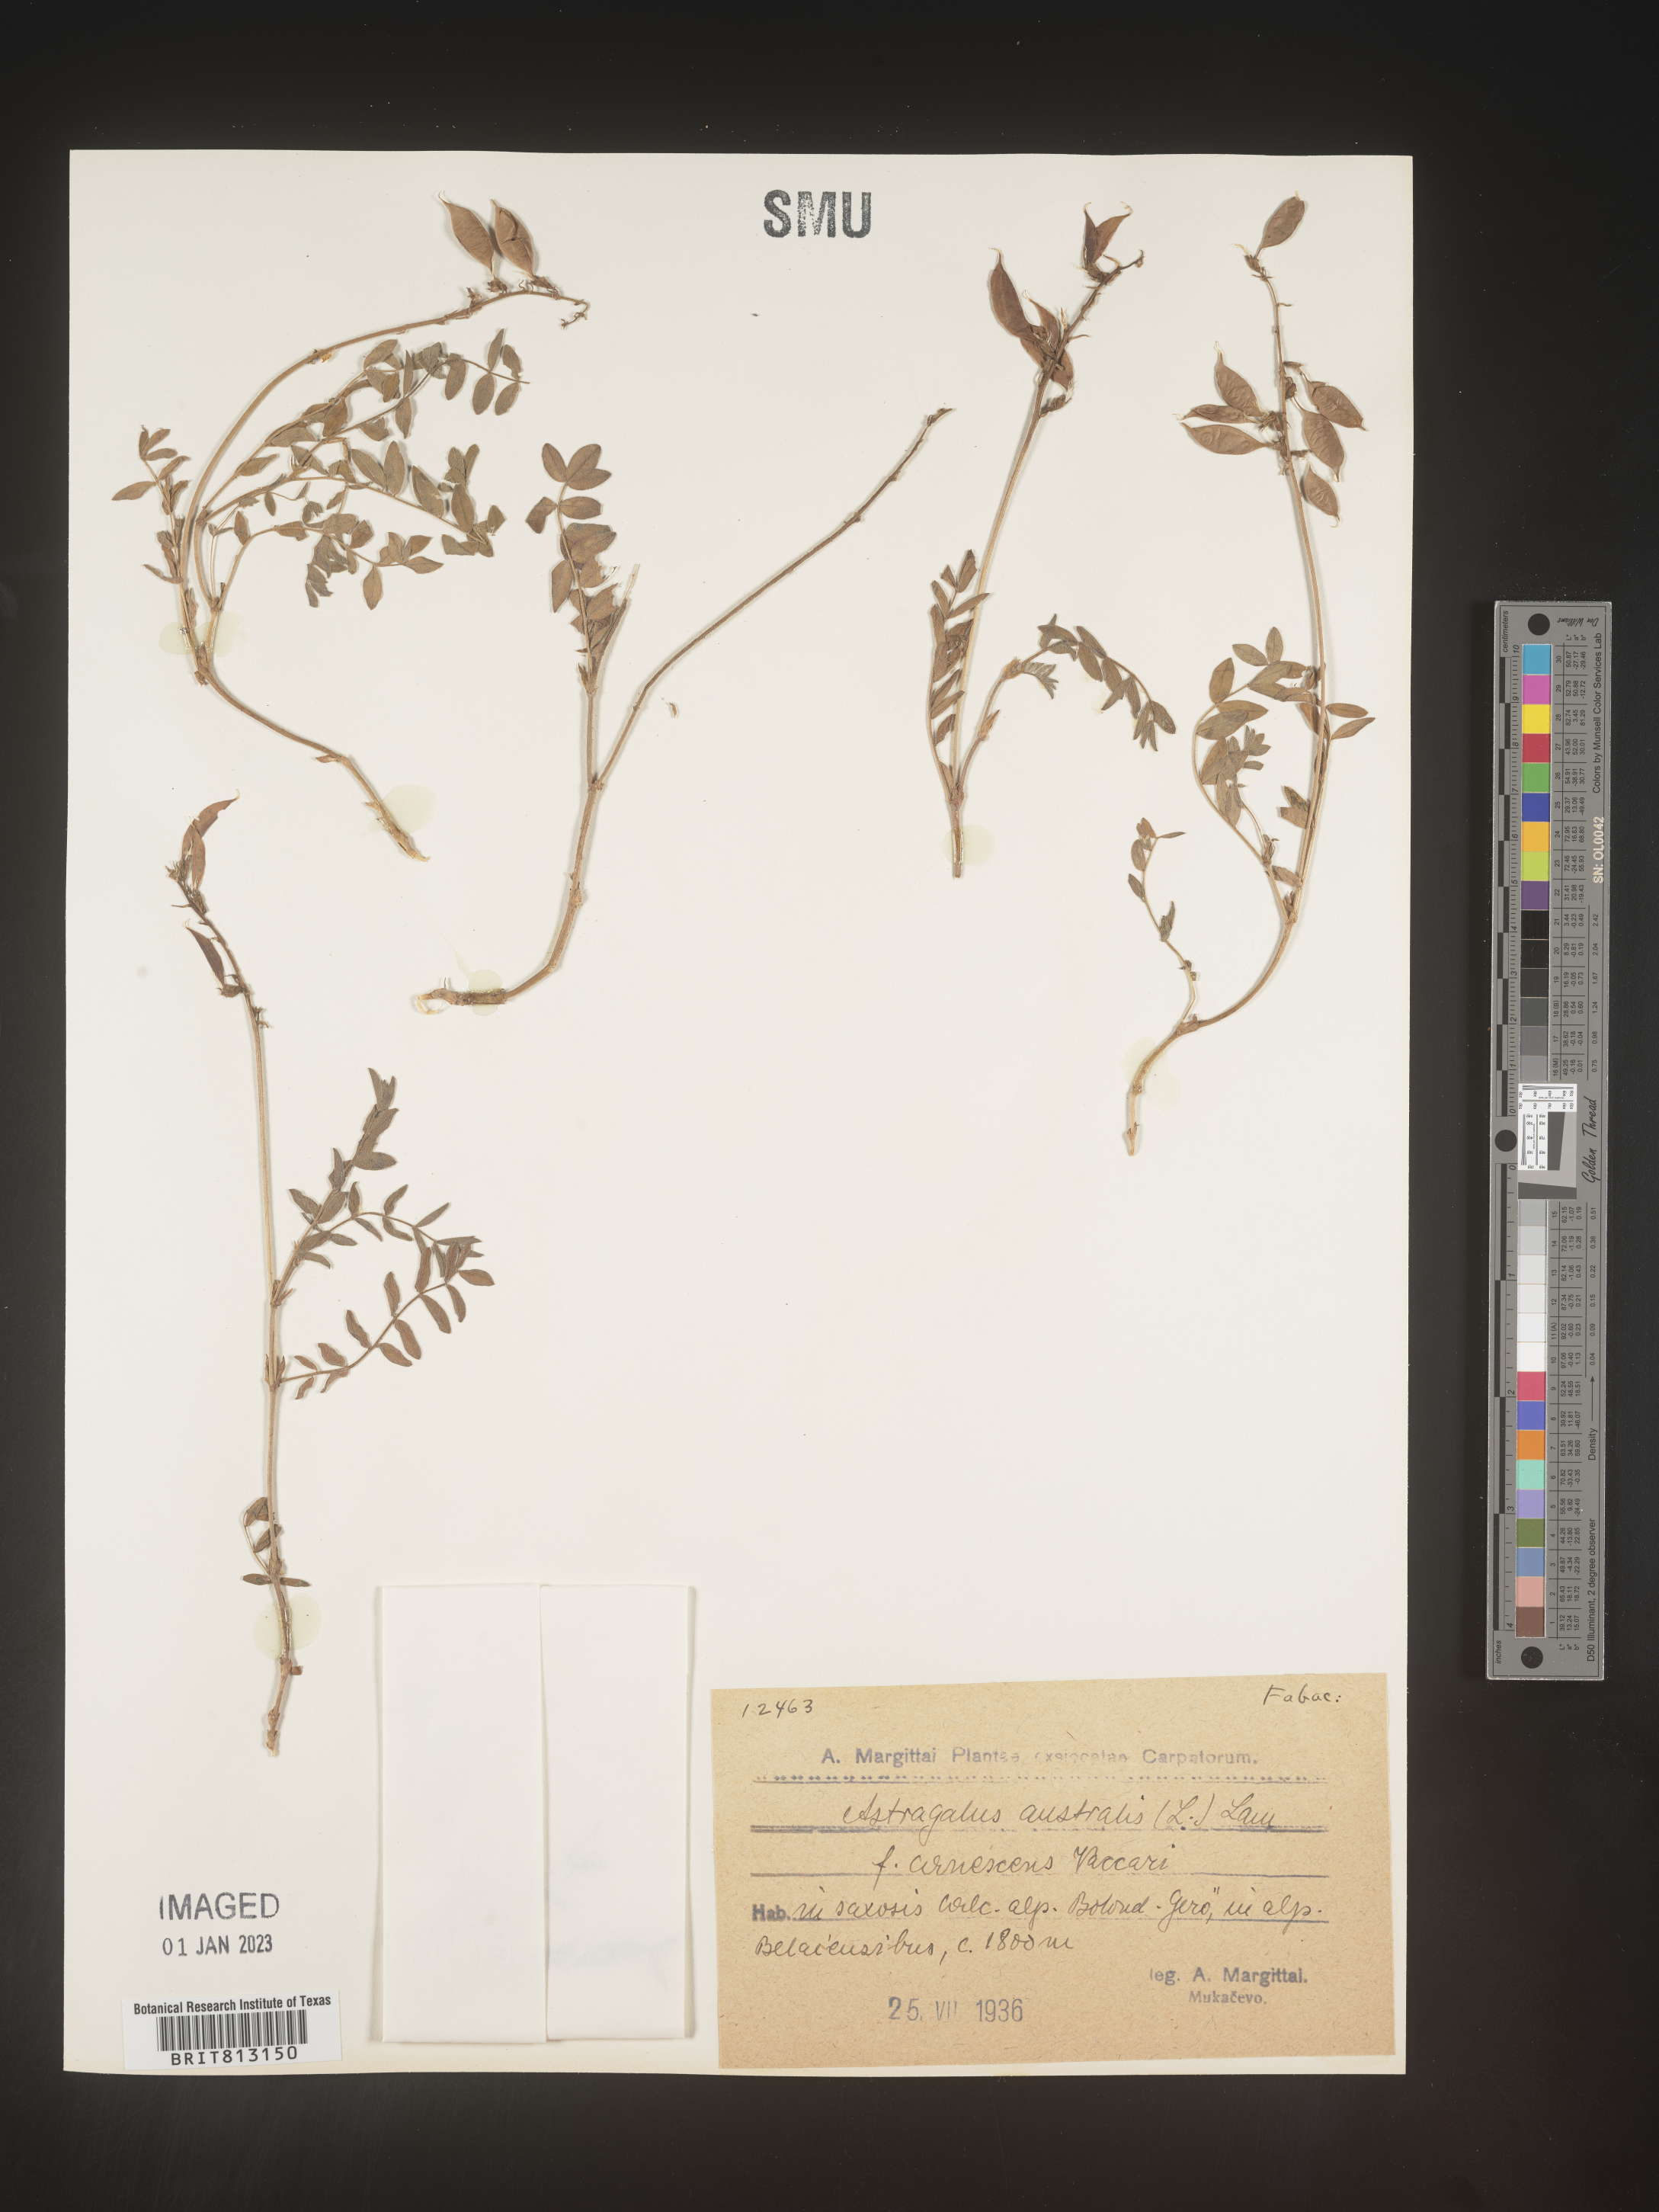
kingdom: Plantae
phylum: Tracheophyta
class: Magnoliopsida
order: Fabales
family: Fabaceae
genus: Astragalus
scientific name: Astragalus
